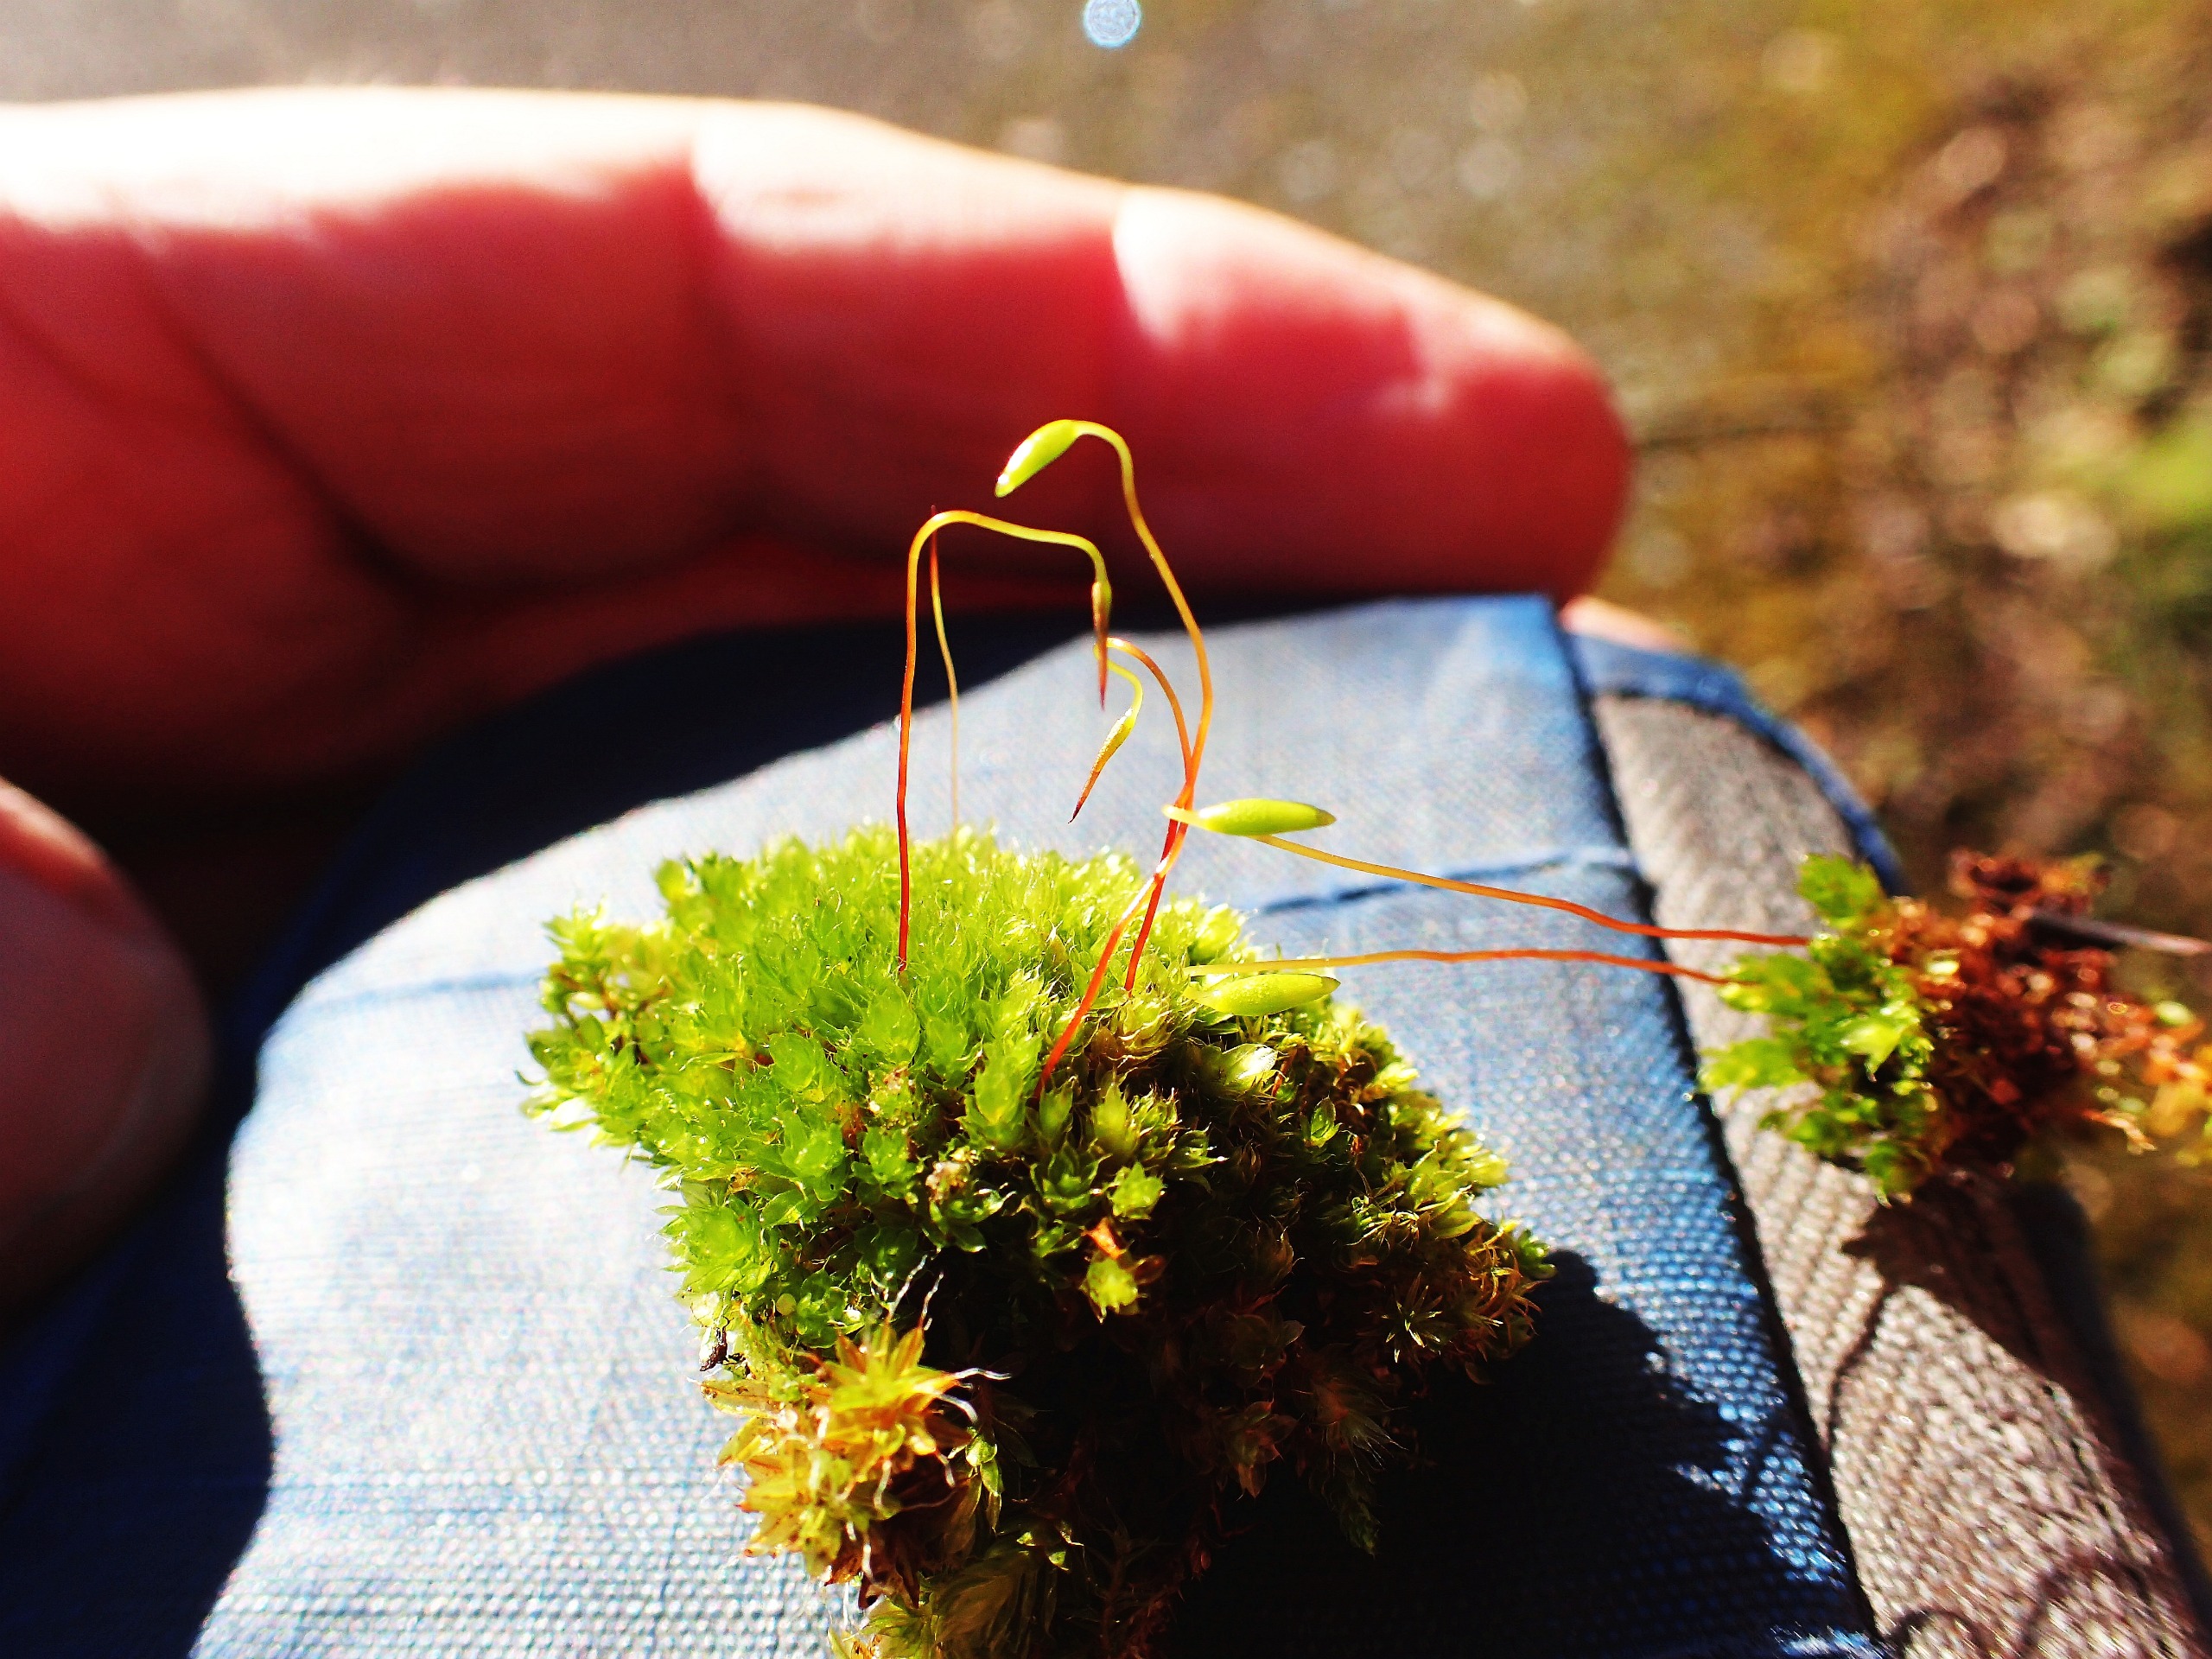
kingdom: Plantae
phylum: Bryophyta
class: Bryopsida
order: Bryales
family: Bryaceae
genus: Bryum
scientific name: Bryum
